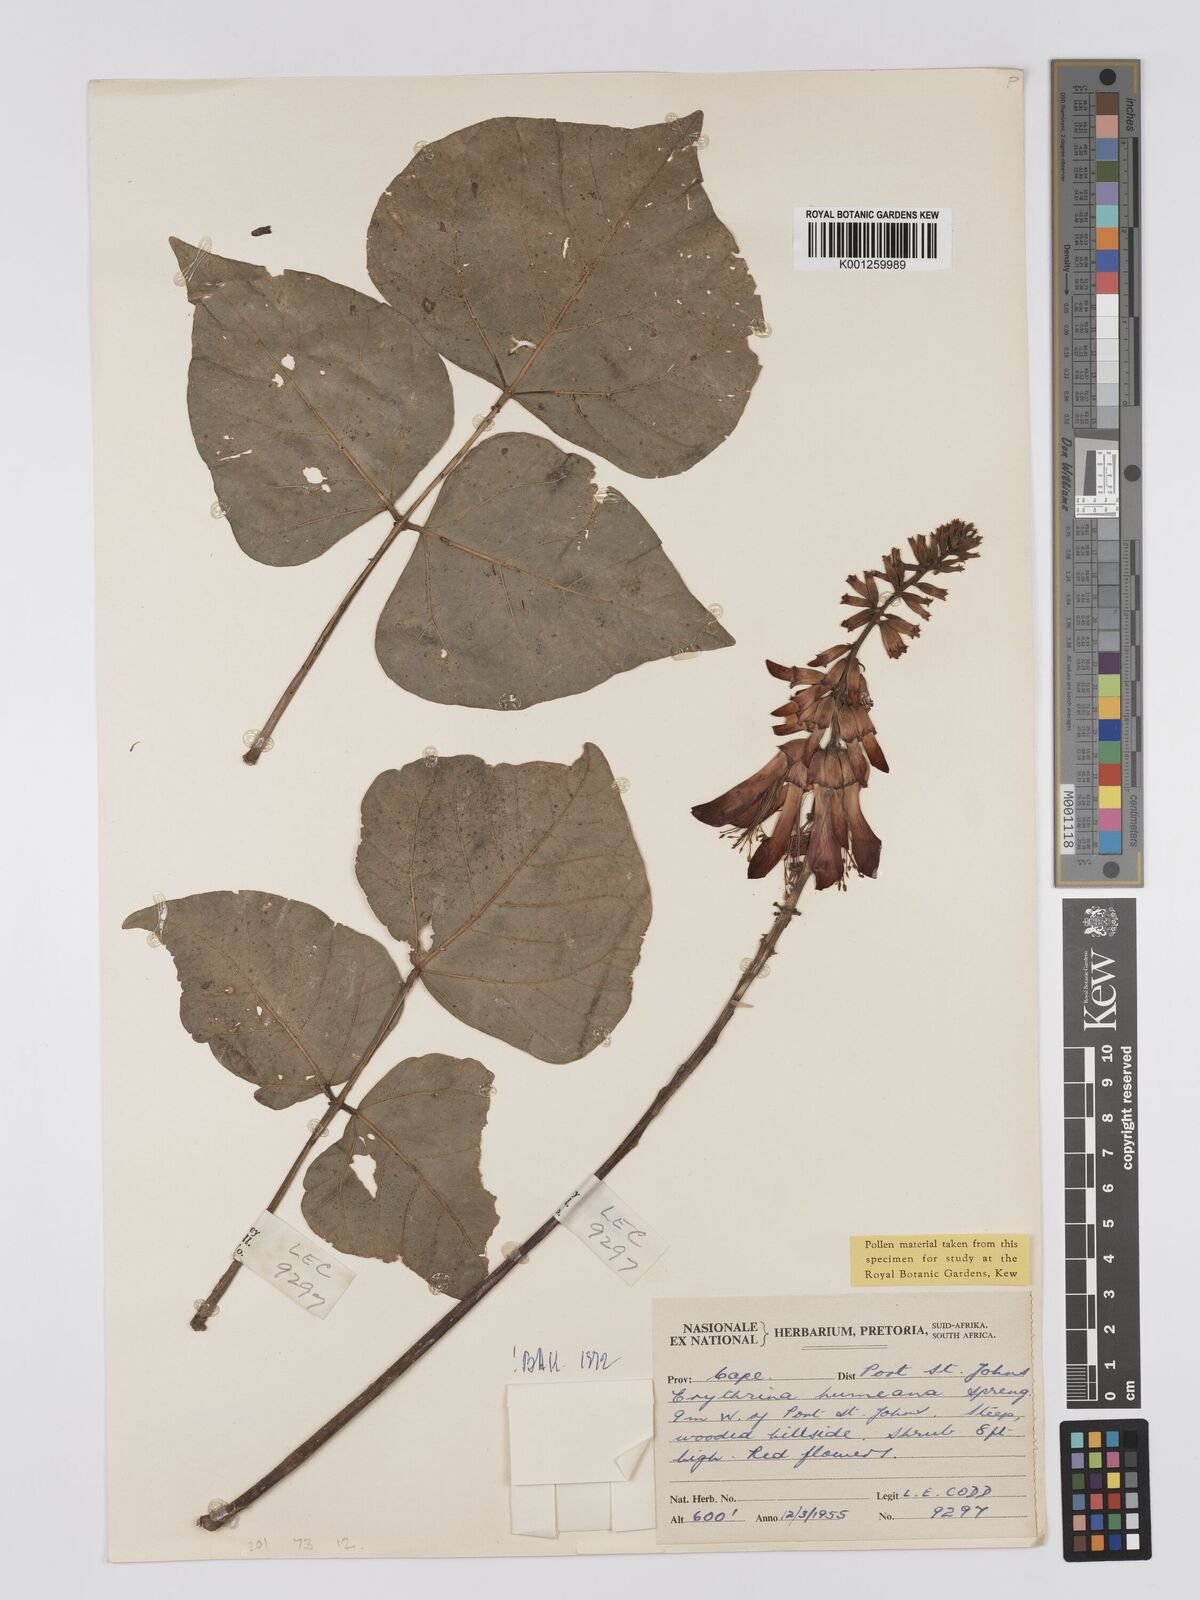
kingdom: Plantae
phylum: Tracheophyta
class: Magnoliopsida
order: Fabales
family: Fabaceae
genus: Erythrina
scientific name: Erythrina humeana
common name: Dwarf coral tree
